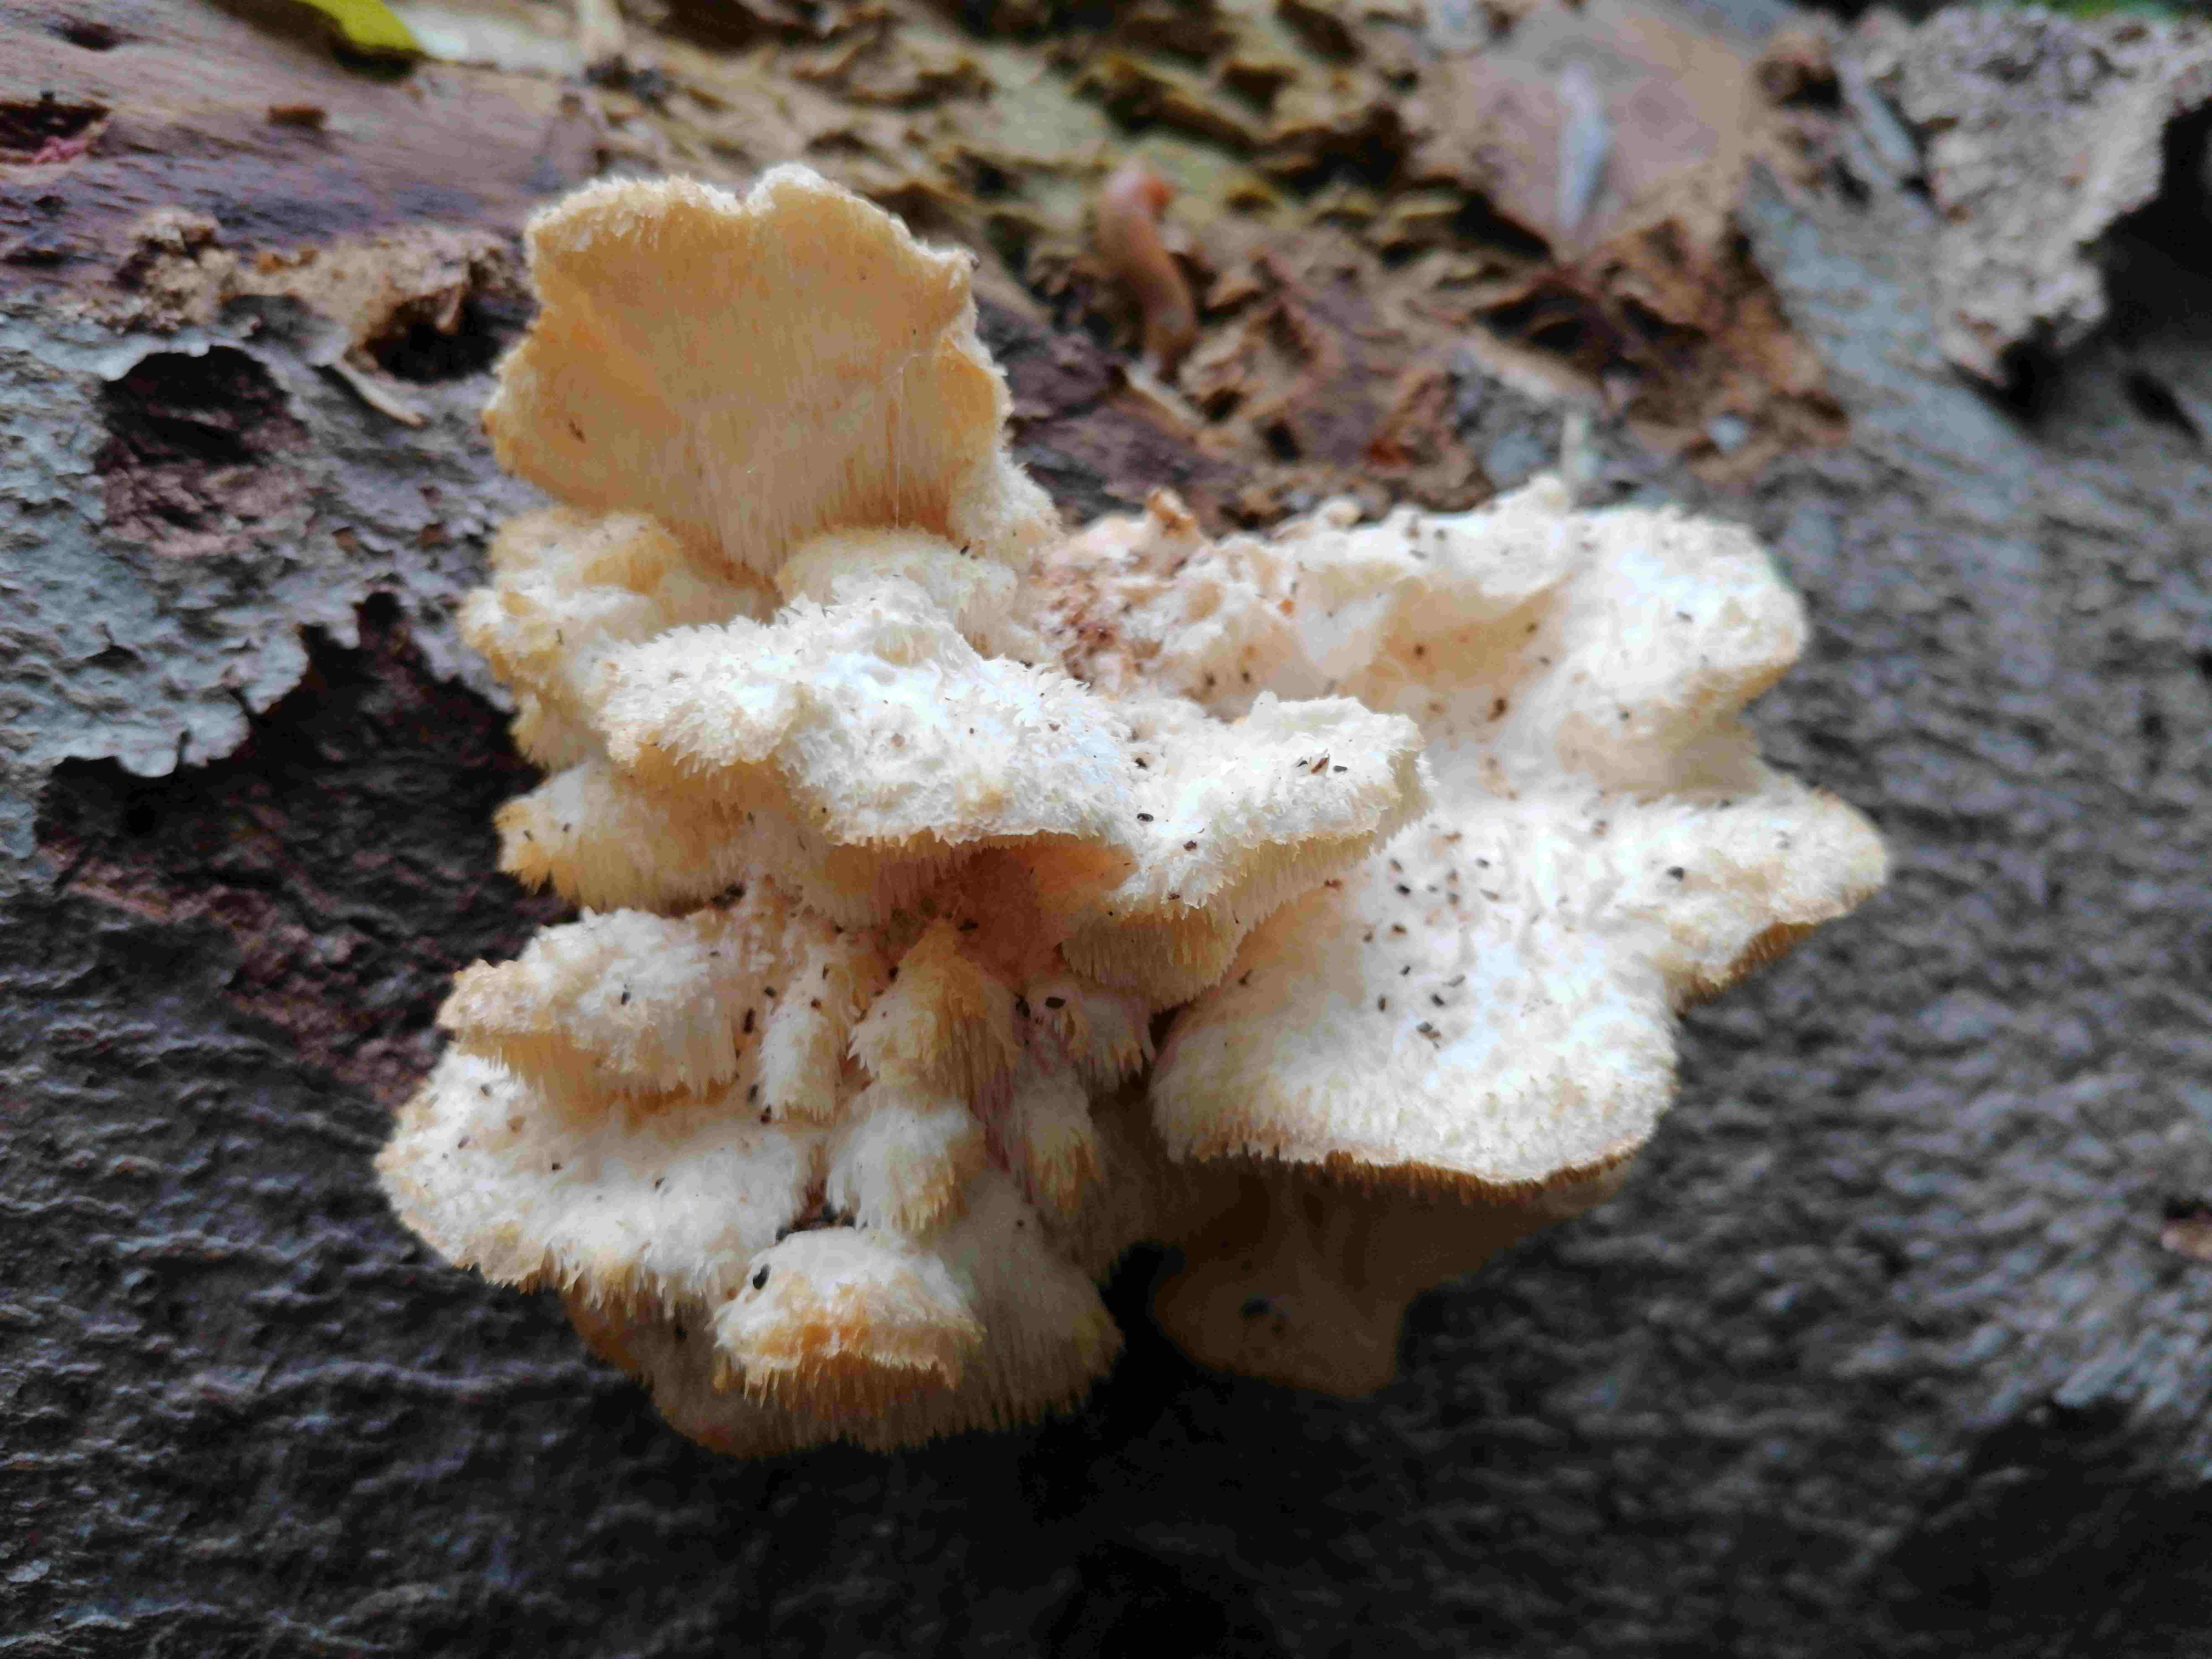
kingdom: Fungi
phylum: Basidiomycota
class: Agaricomycetes
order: Russulales
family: Hericiaceae
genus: Hericium
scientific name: Hericium cirrhatum
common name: børstepigsvamp
